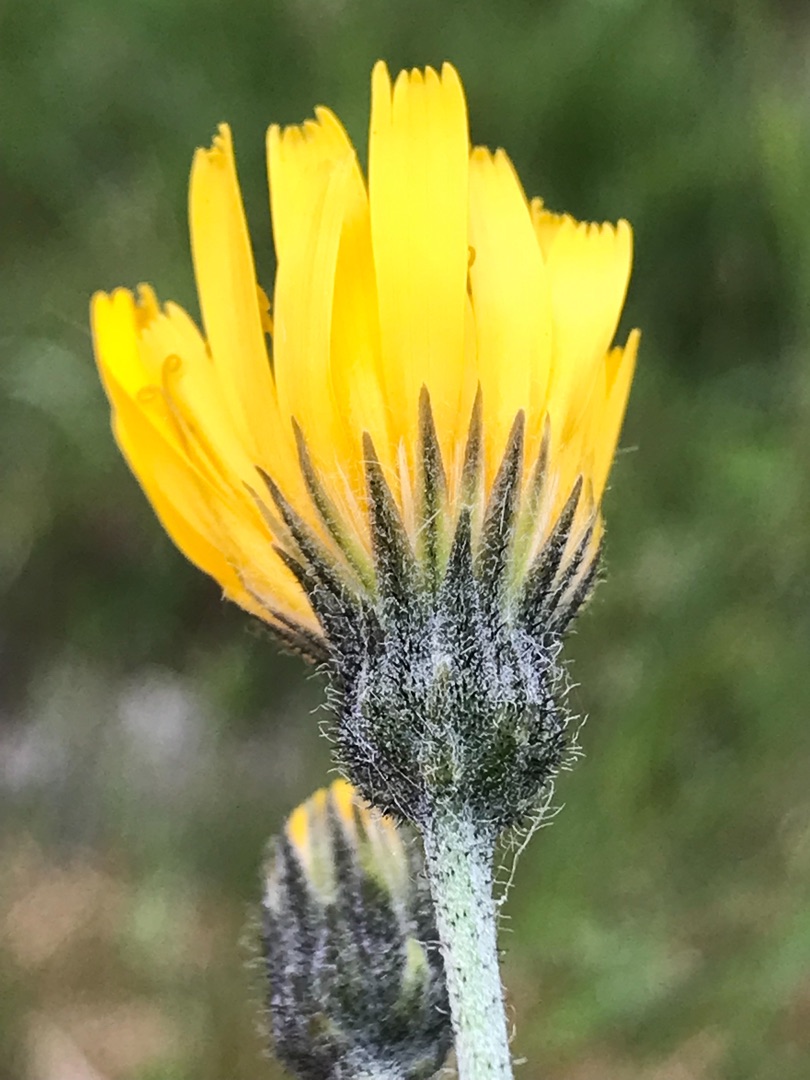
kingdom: Plantae
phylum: Tracheophyta
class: Magnoliopsida
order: Asterales
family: Asteraceae
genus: Hieracium
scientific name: Hieracium vulgatum
